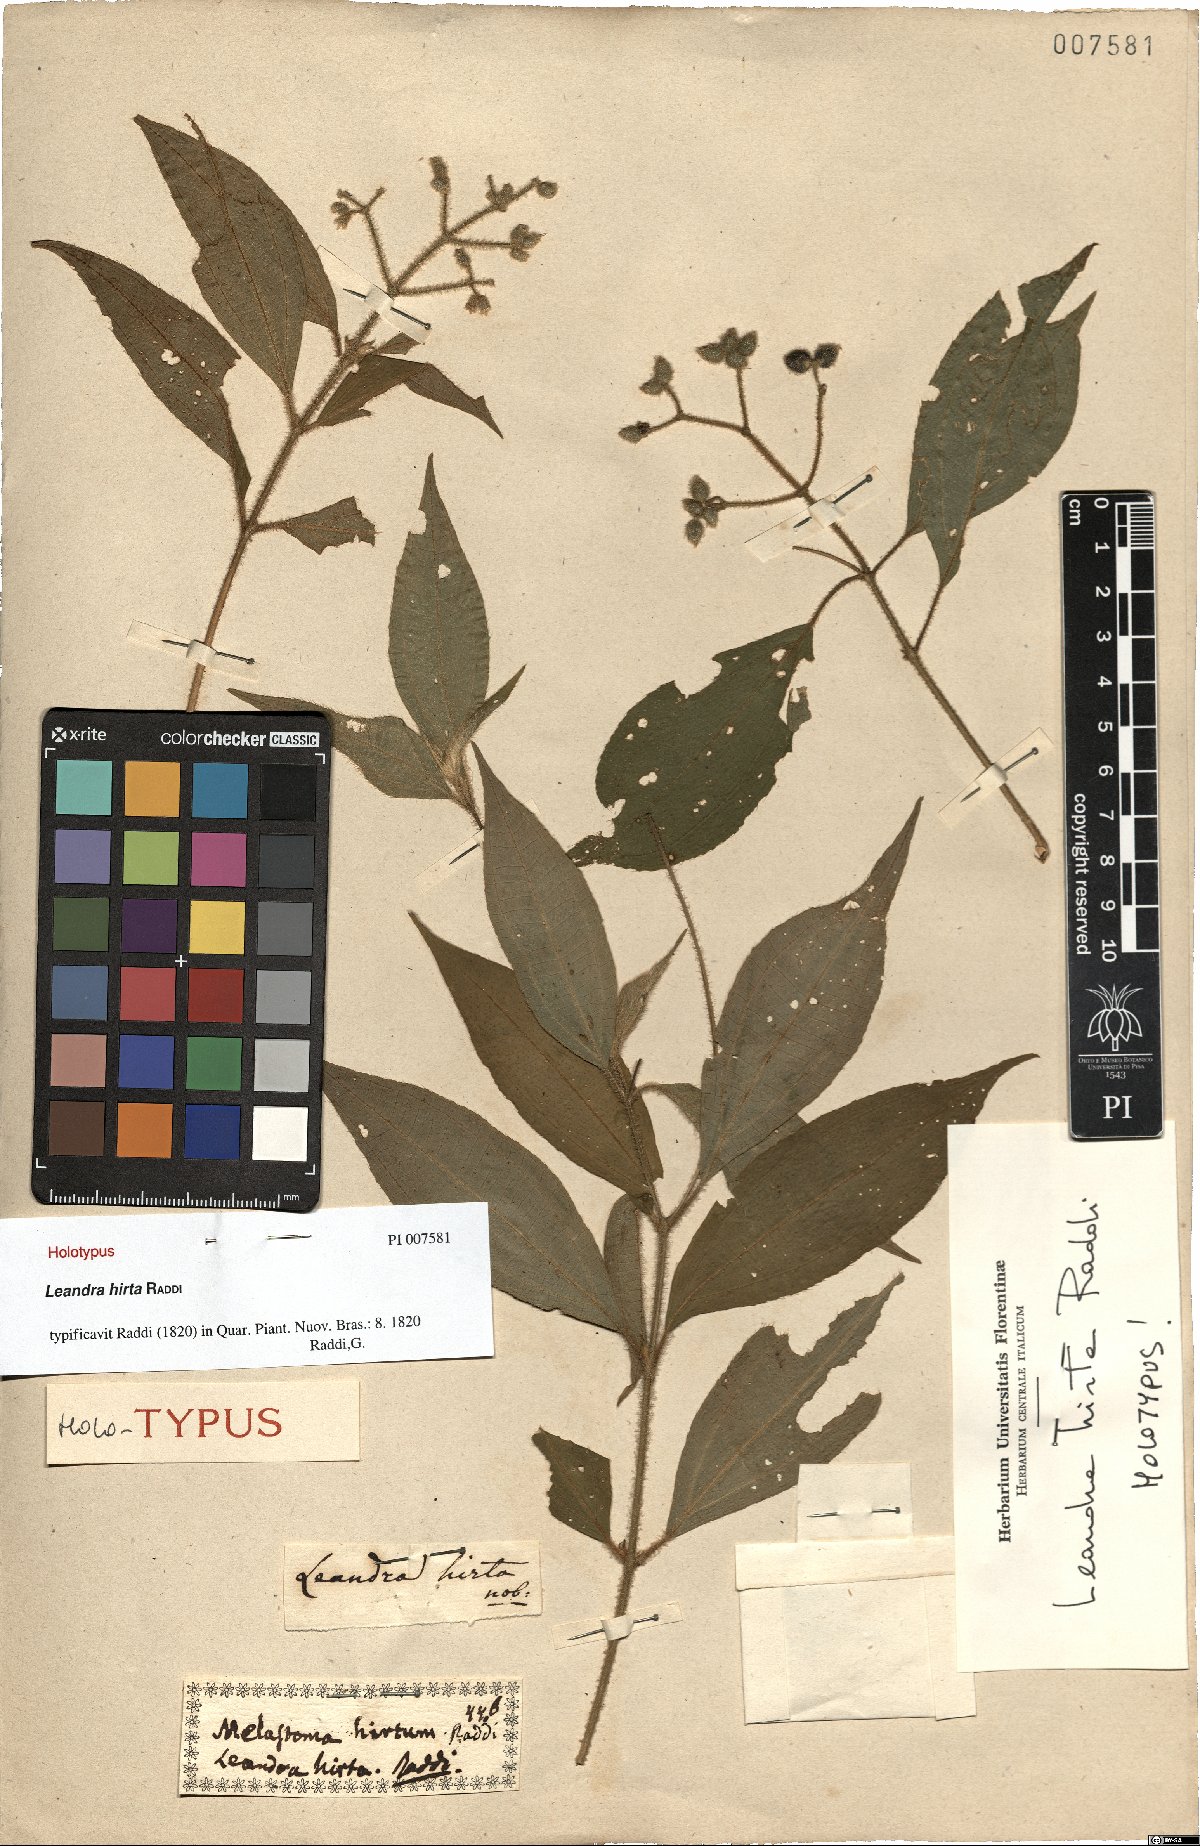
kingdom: Plantae
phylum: Tracheophyta
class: Magnoliopsida
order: Myrtales
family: Melastomataceae
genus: Miconia
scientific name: Miconia dubia
